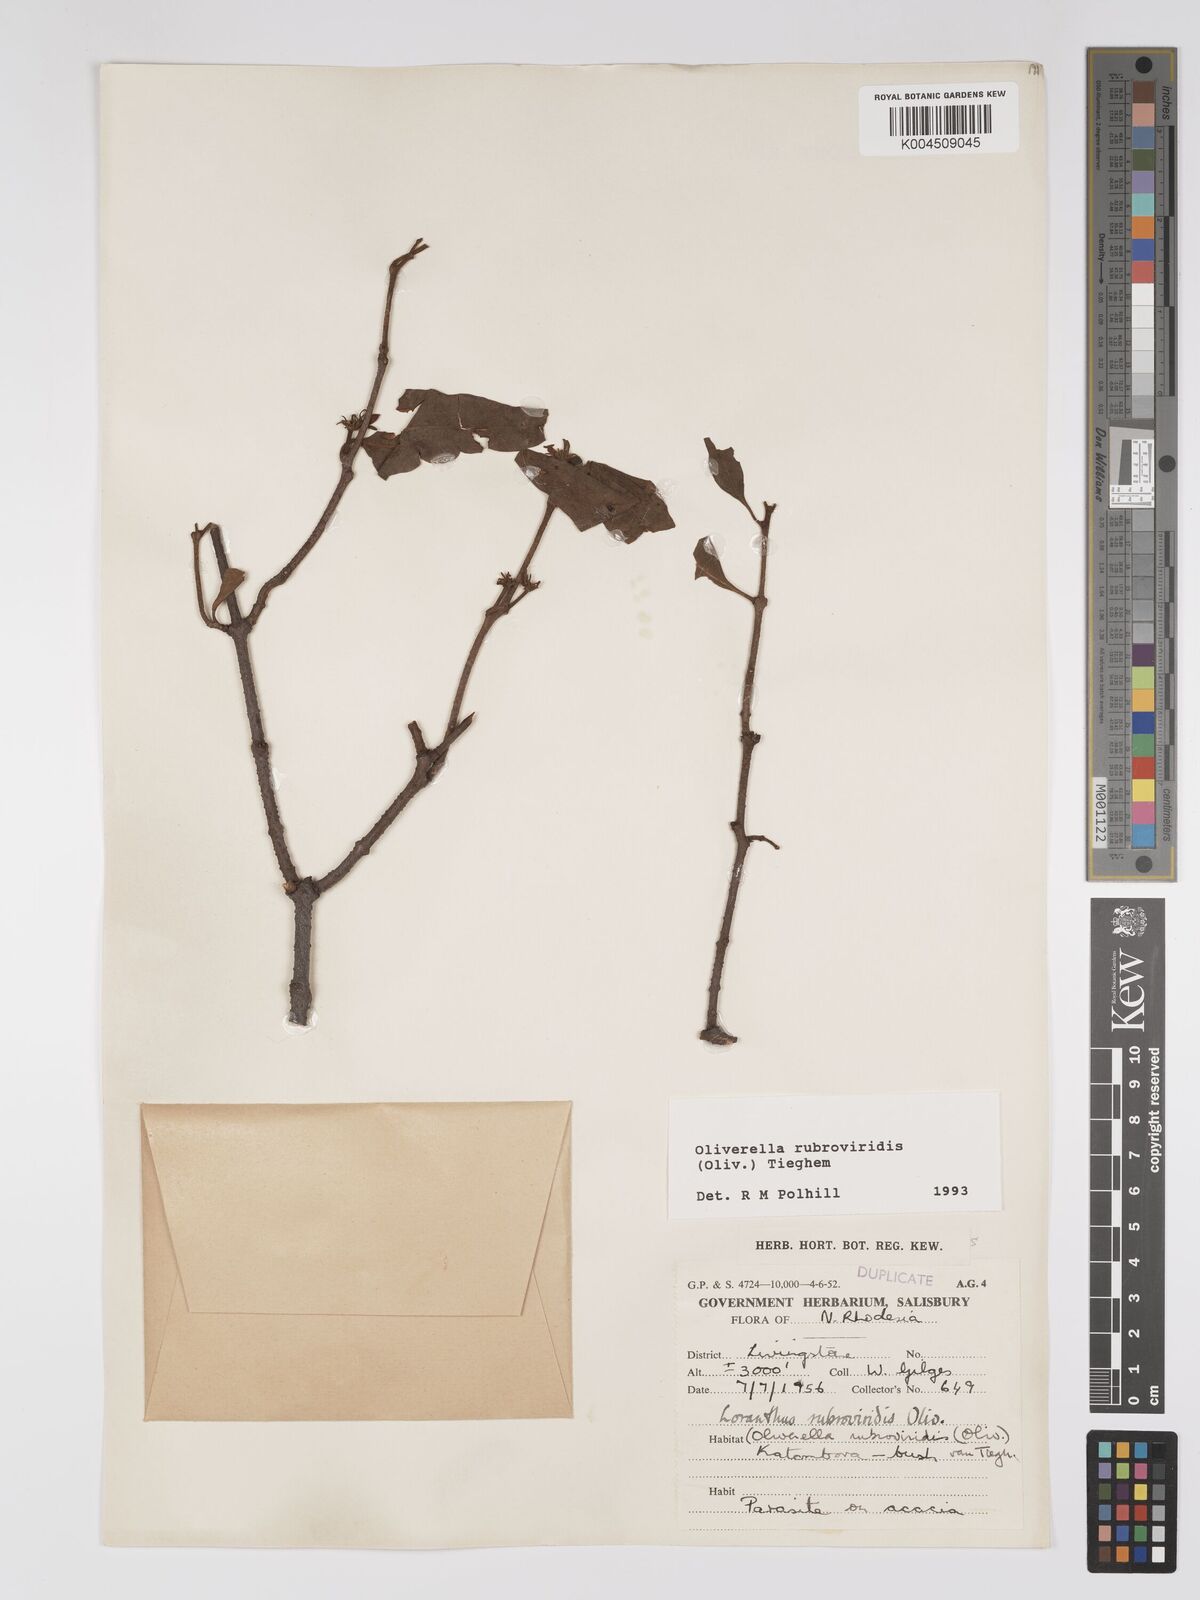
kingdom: Plantae
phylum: Tracheophyta
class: Magnoliopsida
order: Santalales
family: Loranthaceae
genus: Oliverella
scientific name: Oliverella rubroviridis
